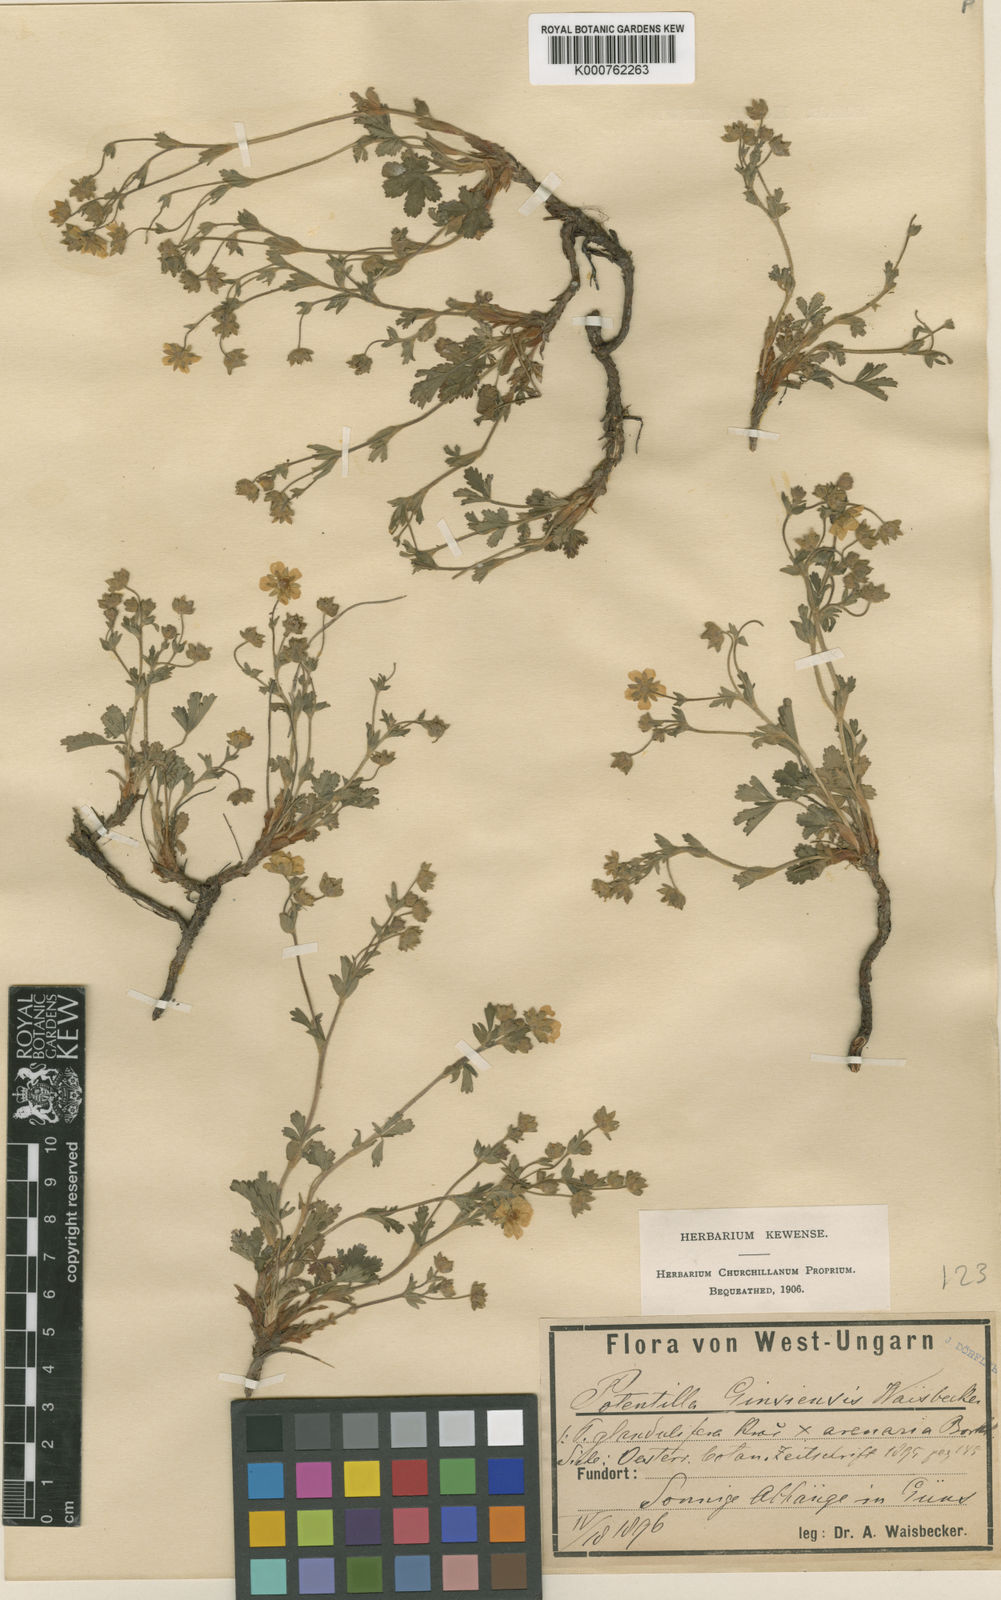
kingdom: Plantae
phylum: Tracheophyta
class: Magnoliopsida
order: Rosales
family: Rosaceae
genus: Potentilla
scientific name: Potentilla pusilla
